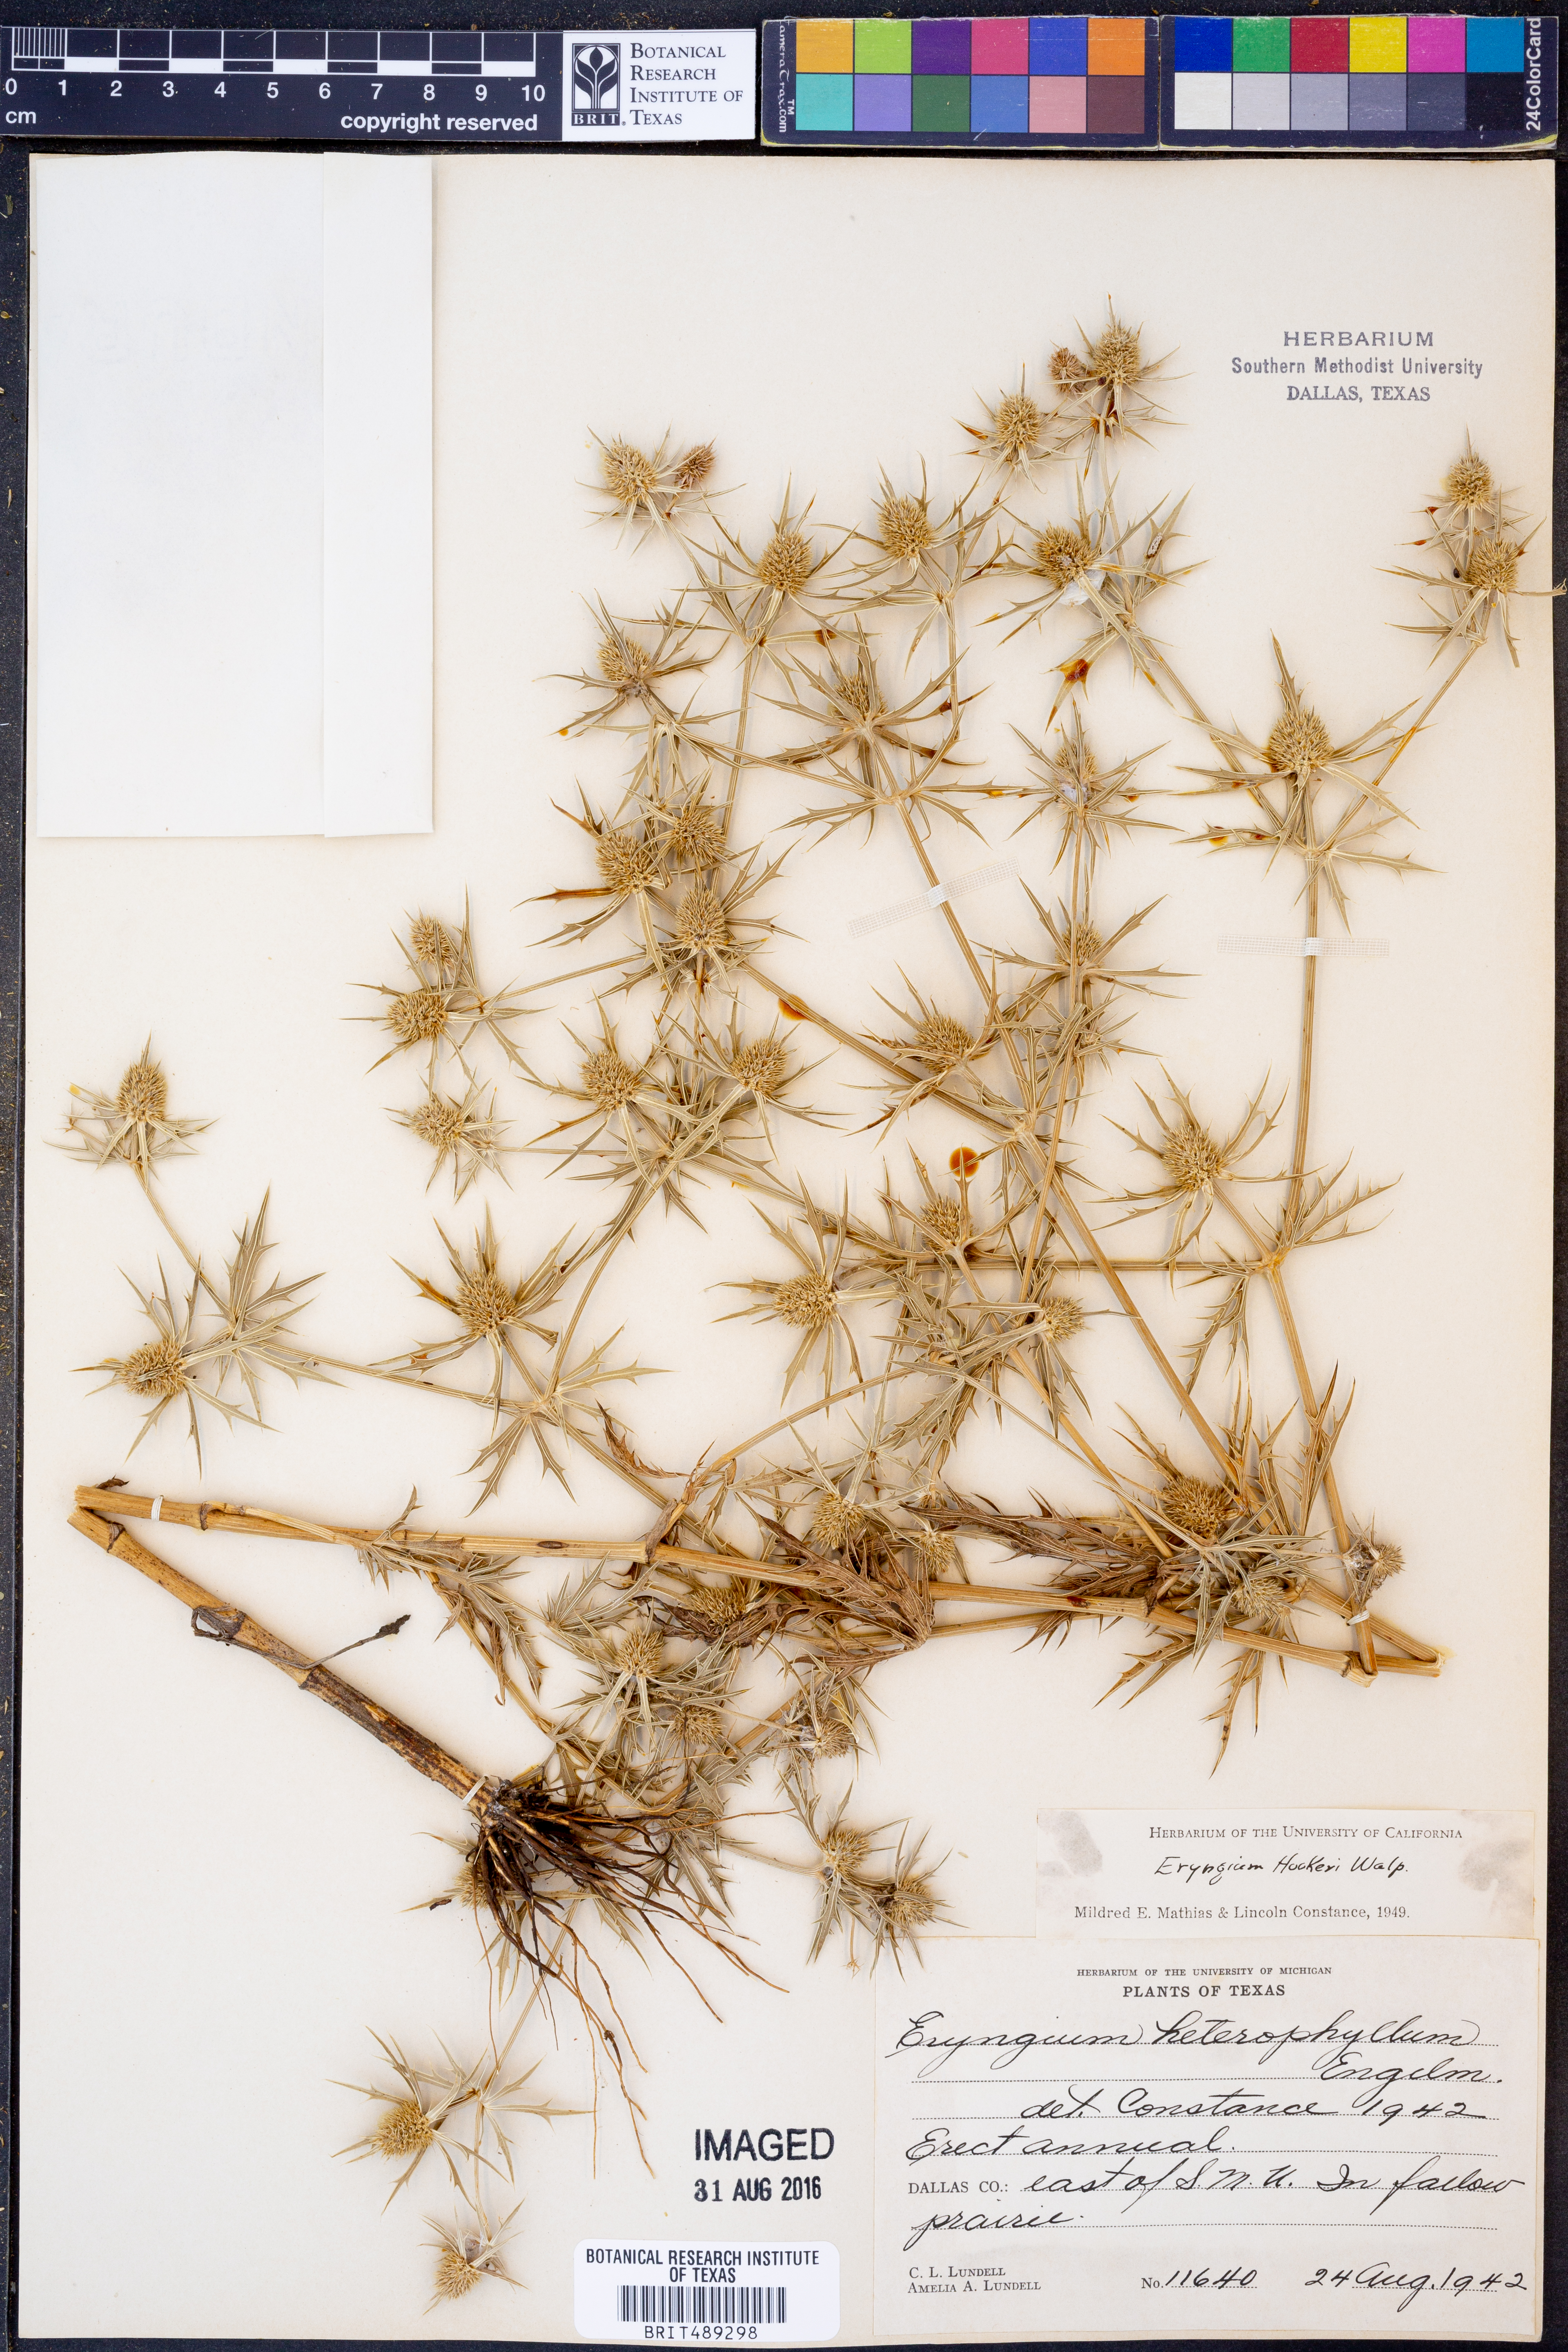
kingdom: Plantae
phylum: Tracheophyta
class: Magnoliopsida
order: Apiales
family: Apiaceae
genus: Eryngium
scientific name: Eryngium hookeri
